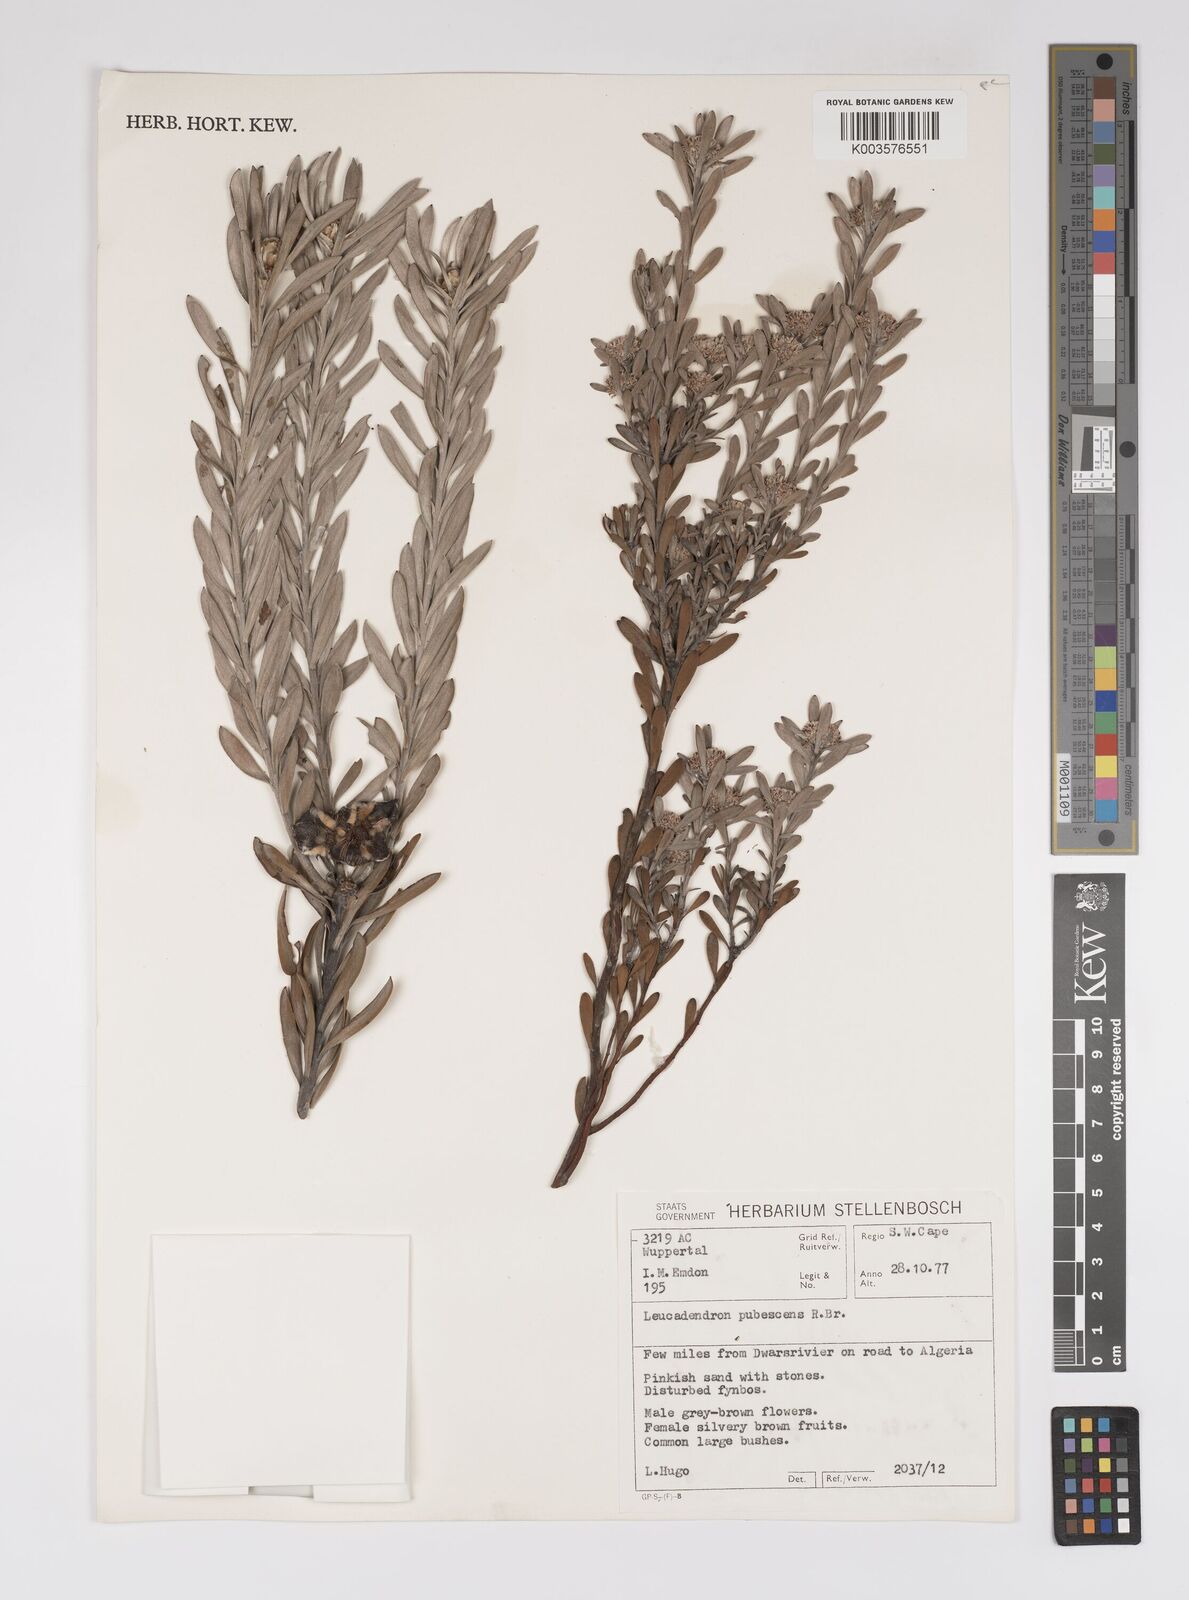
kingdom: Plantae
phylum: Tracheophyta
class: Magnoliopsida
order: Proteales
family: Proteaceae
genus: Leucadendron
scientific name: Leucadendron pubescens
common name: Grey conebush
